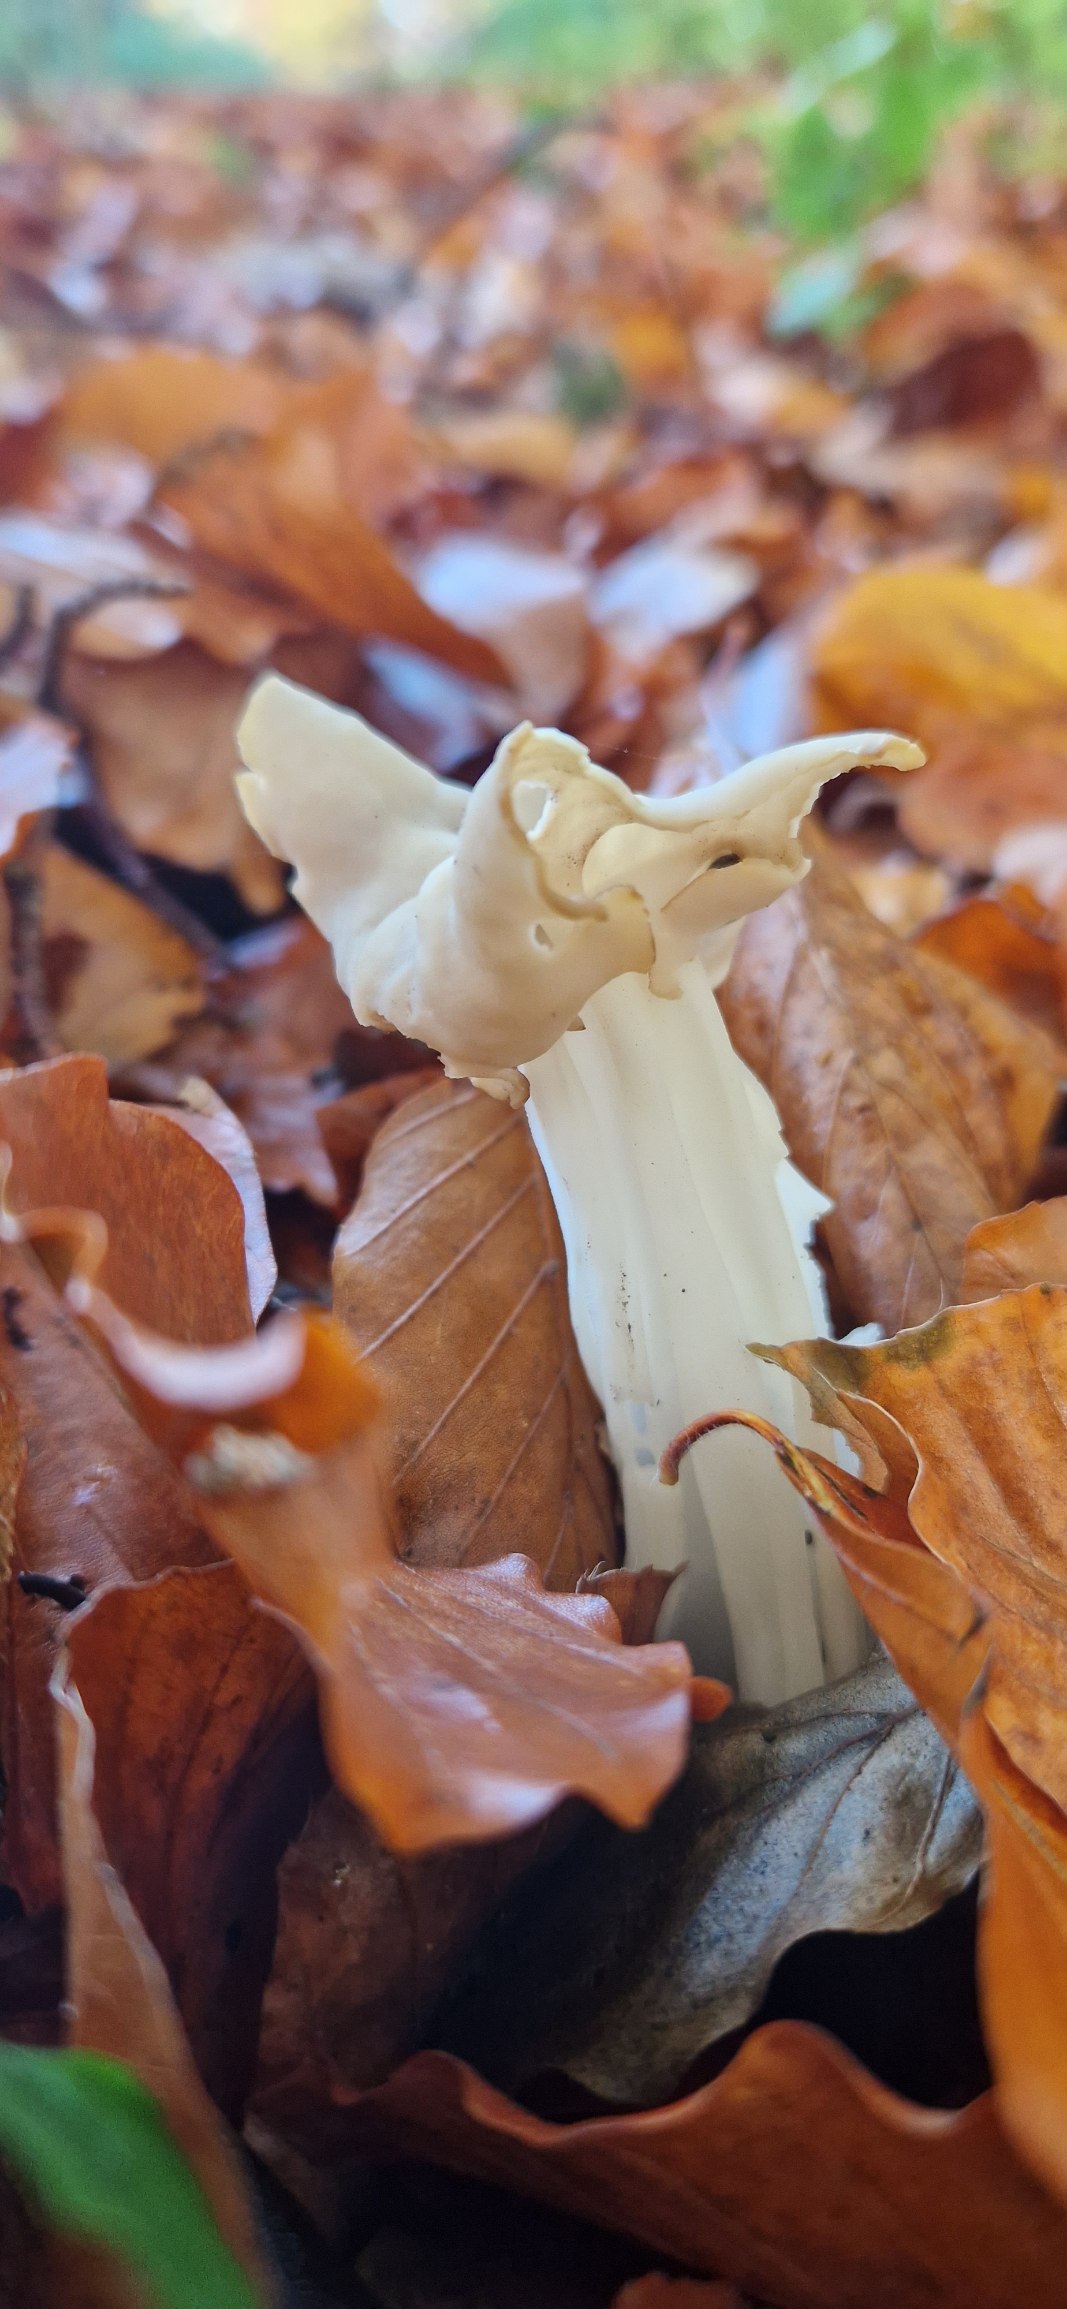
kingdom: Fungi
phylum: Ascomycota
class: Pezizomycetes
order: Pezizales
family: Helvellaceae
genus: Helvella
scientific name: Helvella crispa
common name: Kruset foldhat
